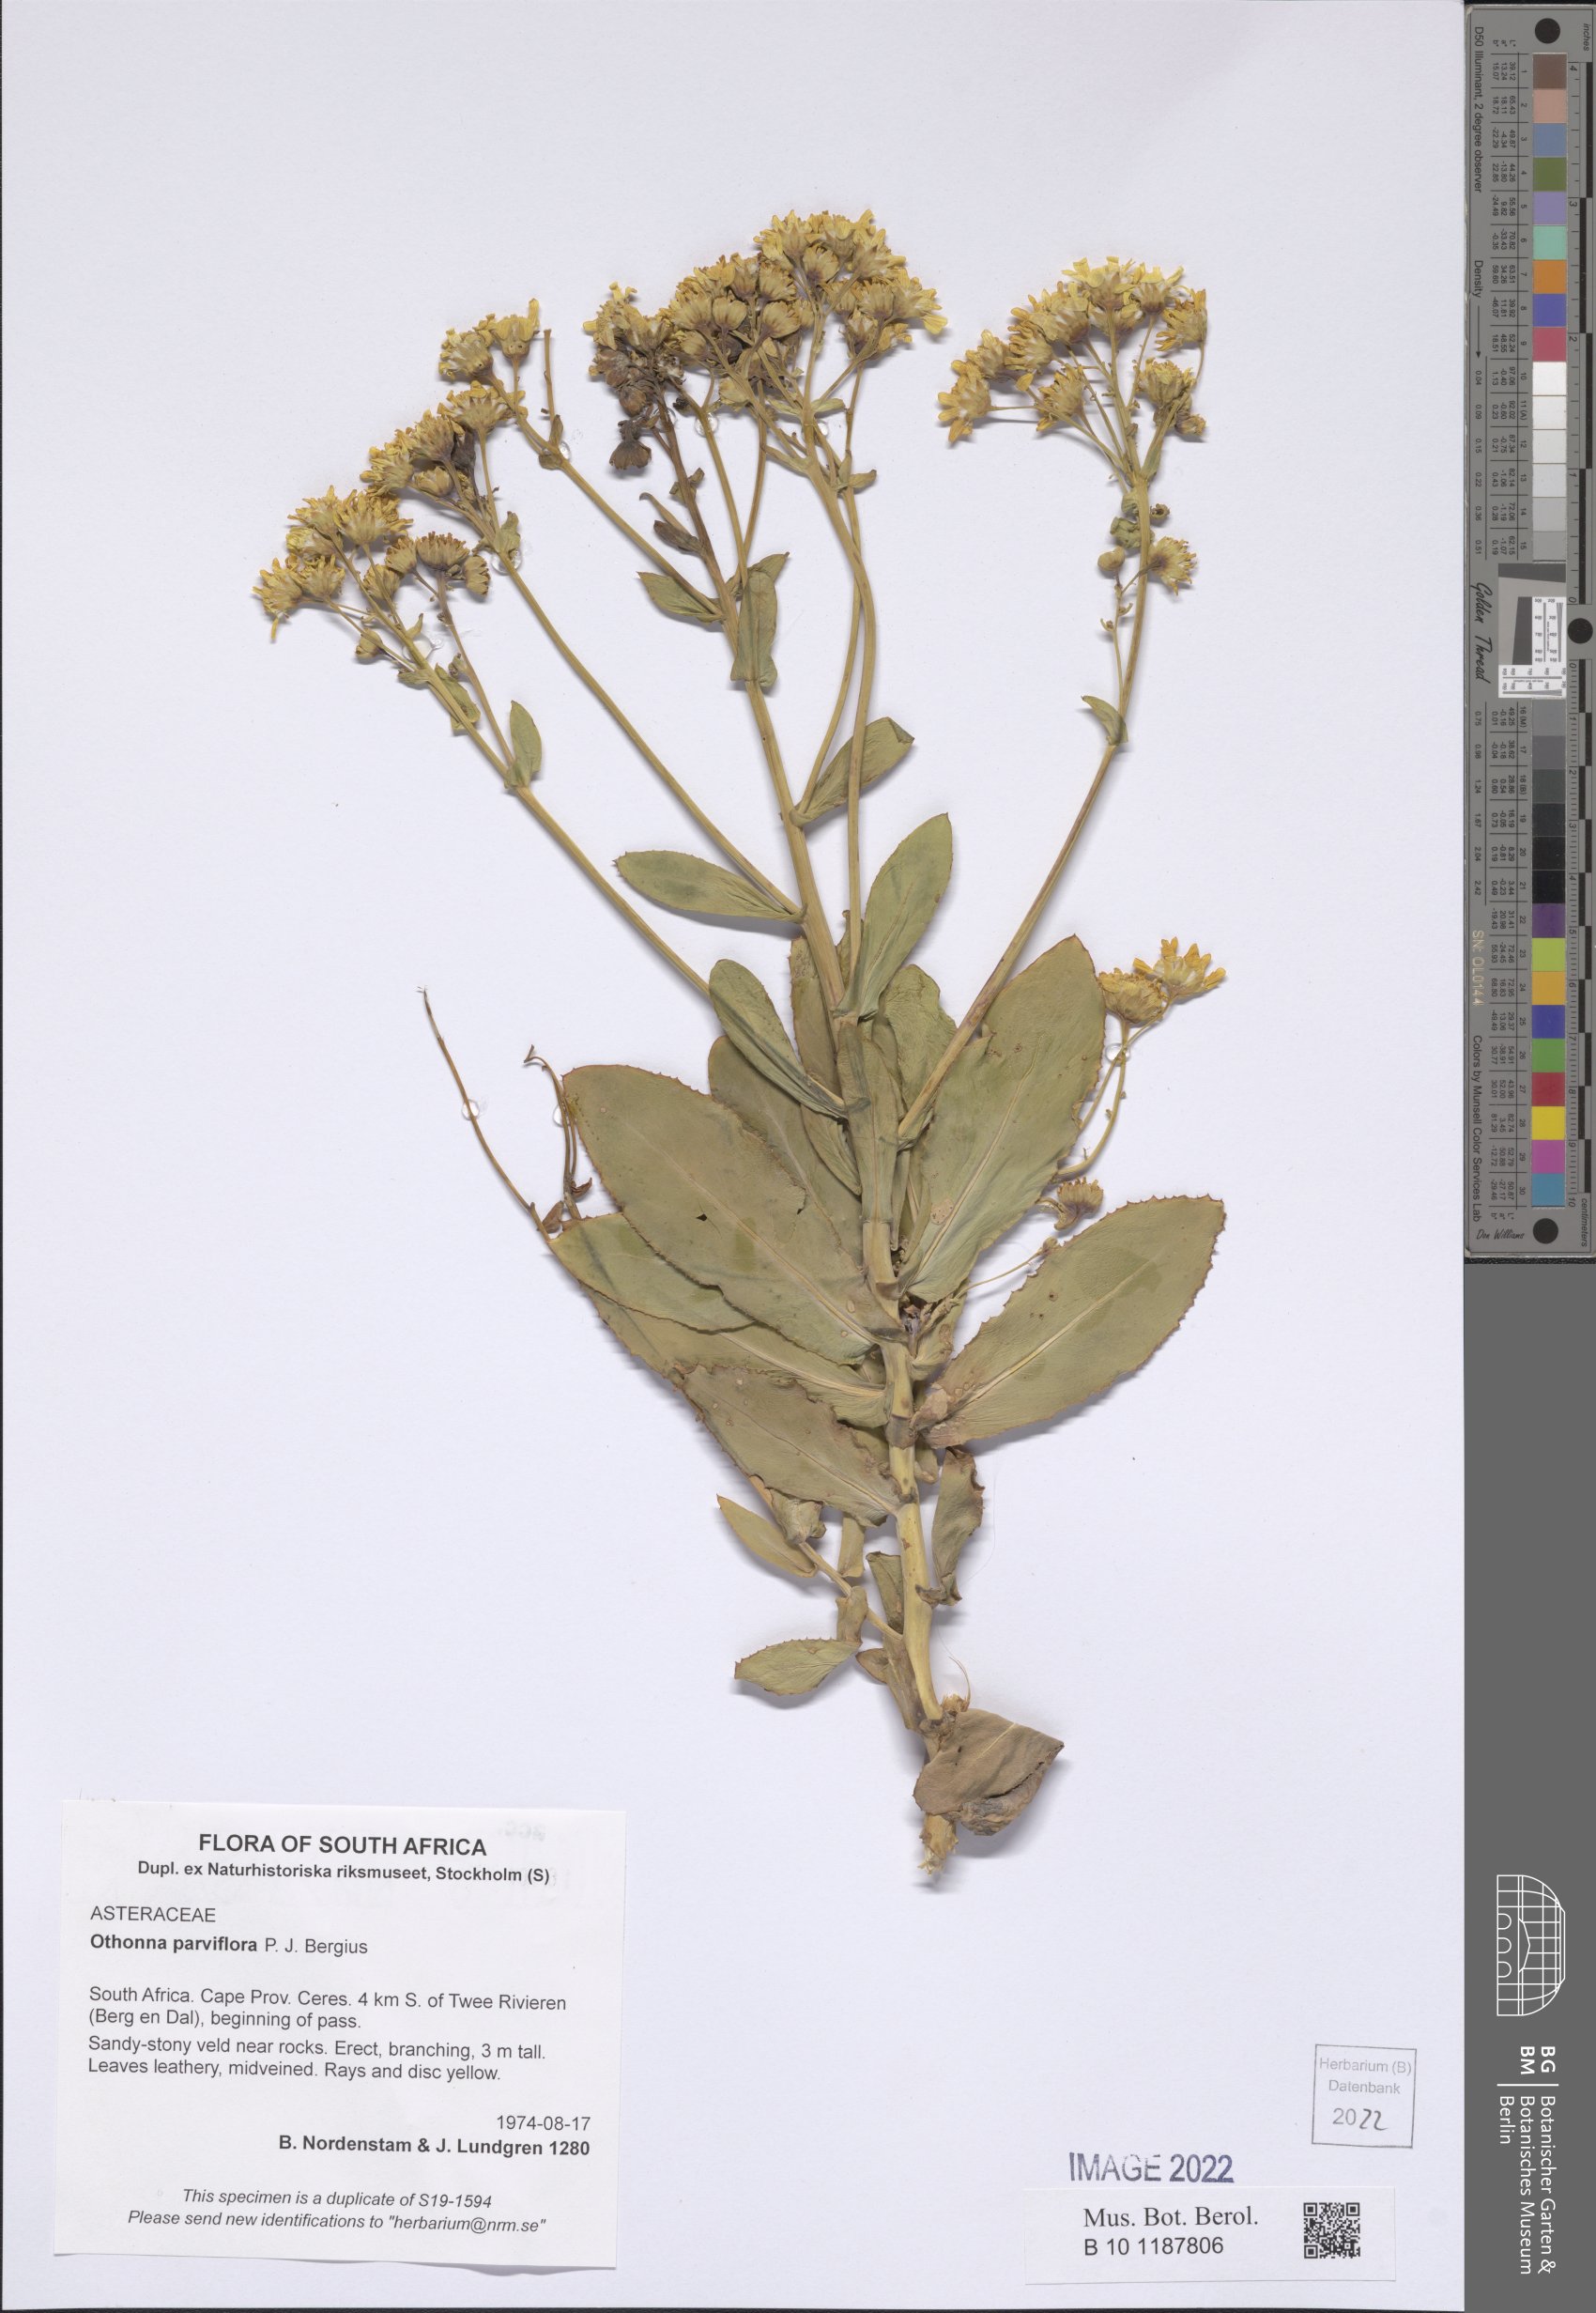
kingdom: Plantae
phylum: Tracheophyta
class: Magnoliopsida
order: Asterales
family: Asteraceae
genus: Othonna
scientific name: Othonna parviflora
